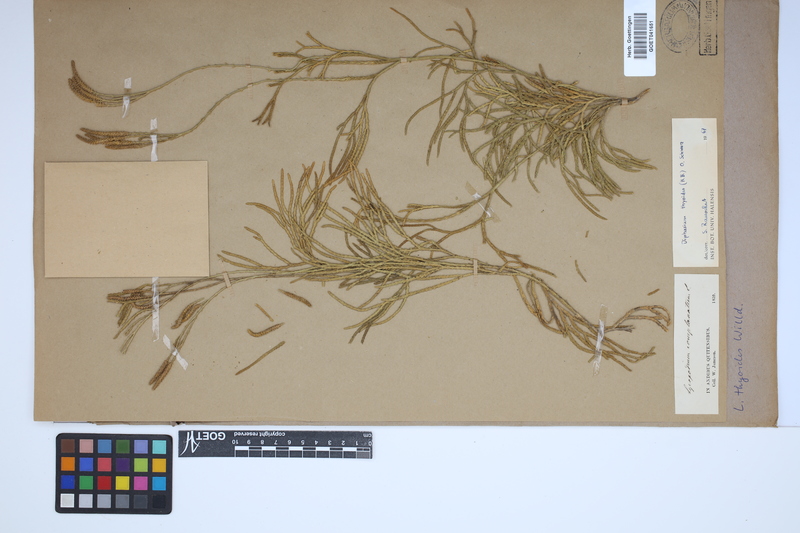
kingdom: Plantae
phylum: Tracheophyta
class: Lycopodiopsida
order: Lycopodiales
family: Lycopodiaceae
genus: Diphasiastrum
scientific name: Diphasiastrum thyoides
